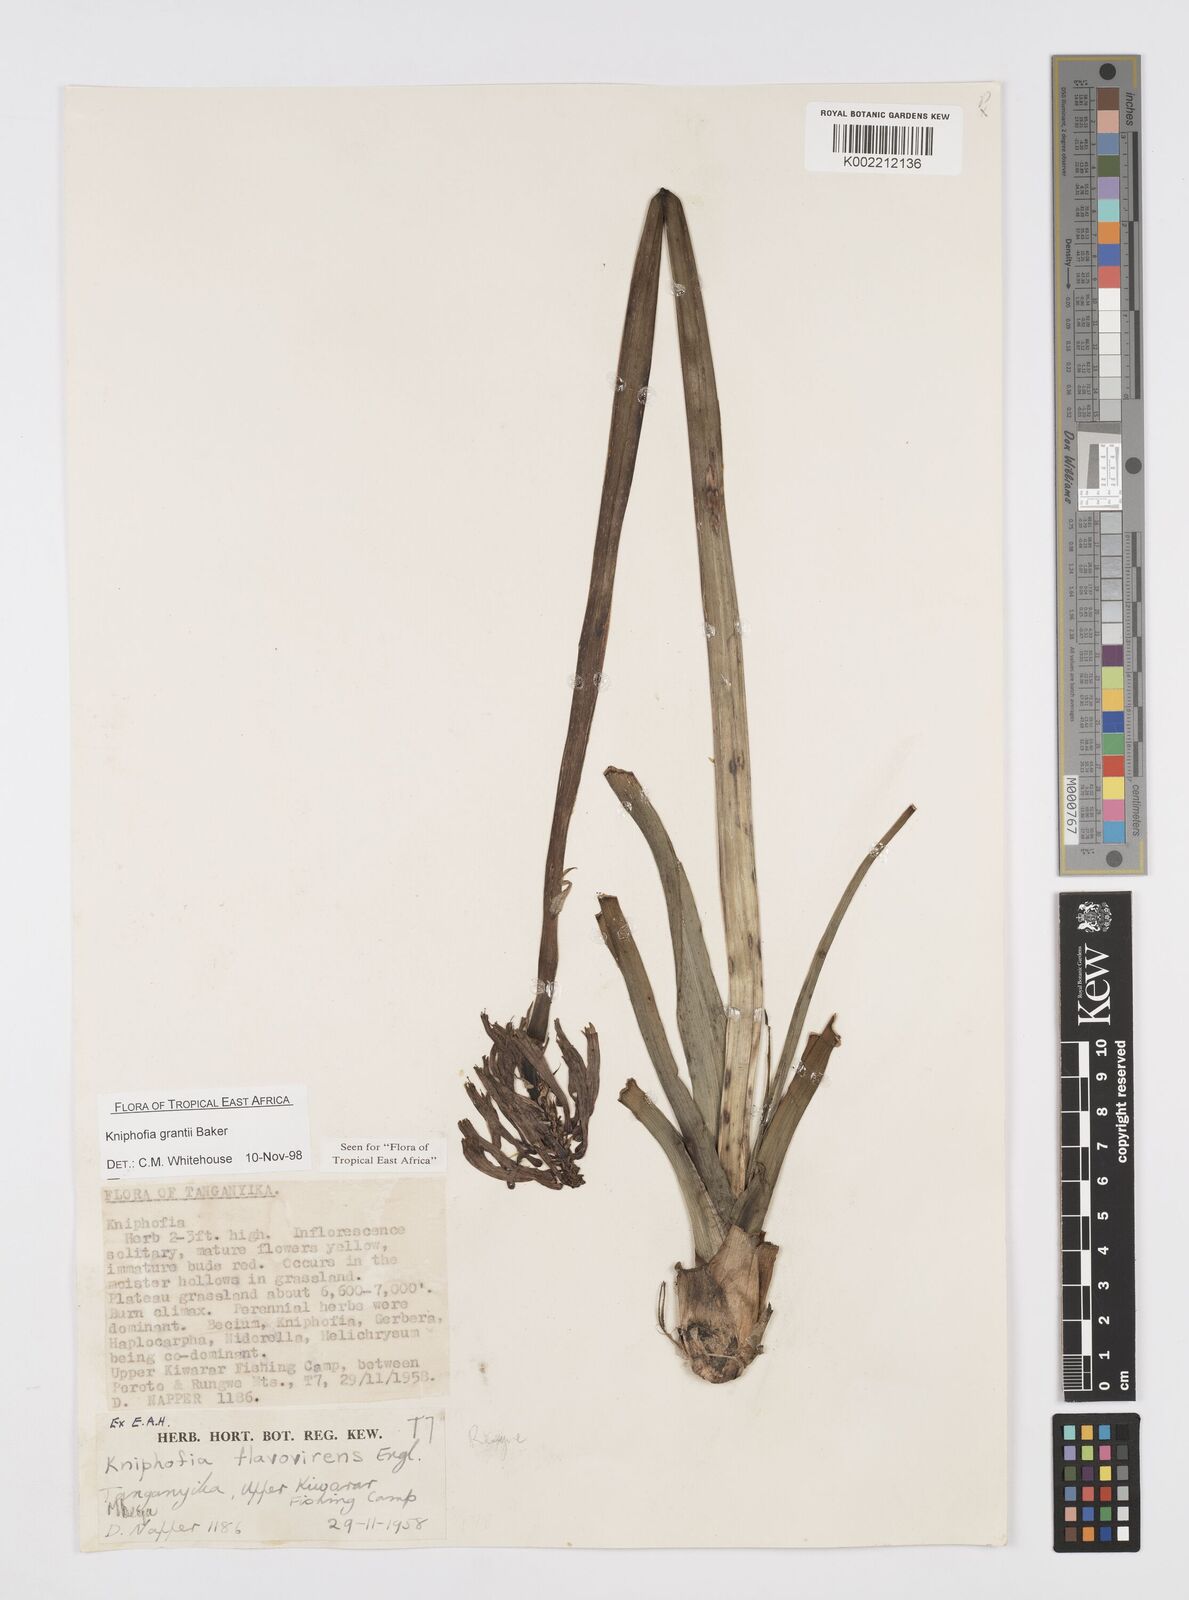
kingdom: Plantae
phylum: Tracheophyta
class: Liliopsida
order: Asparagales
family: Asphodelaceae
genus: Kniphofia
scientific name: Kniphofia grantii
